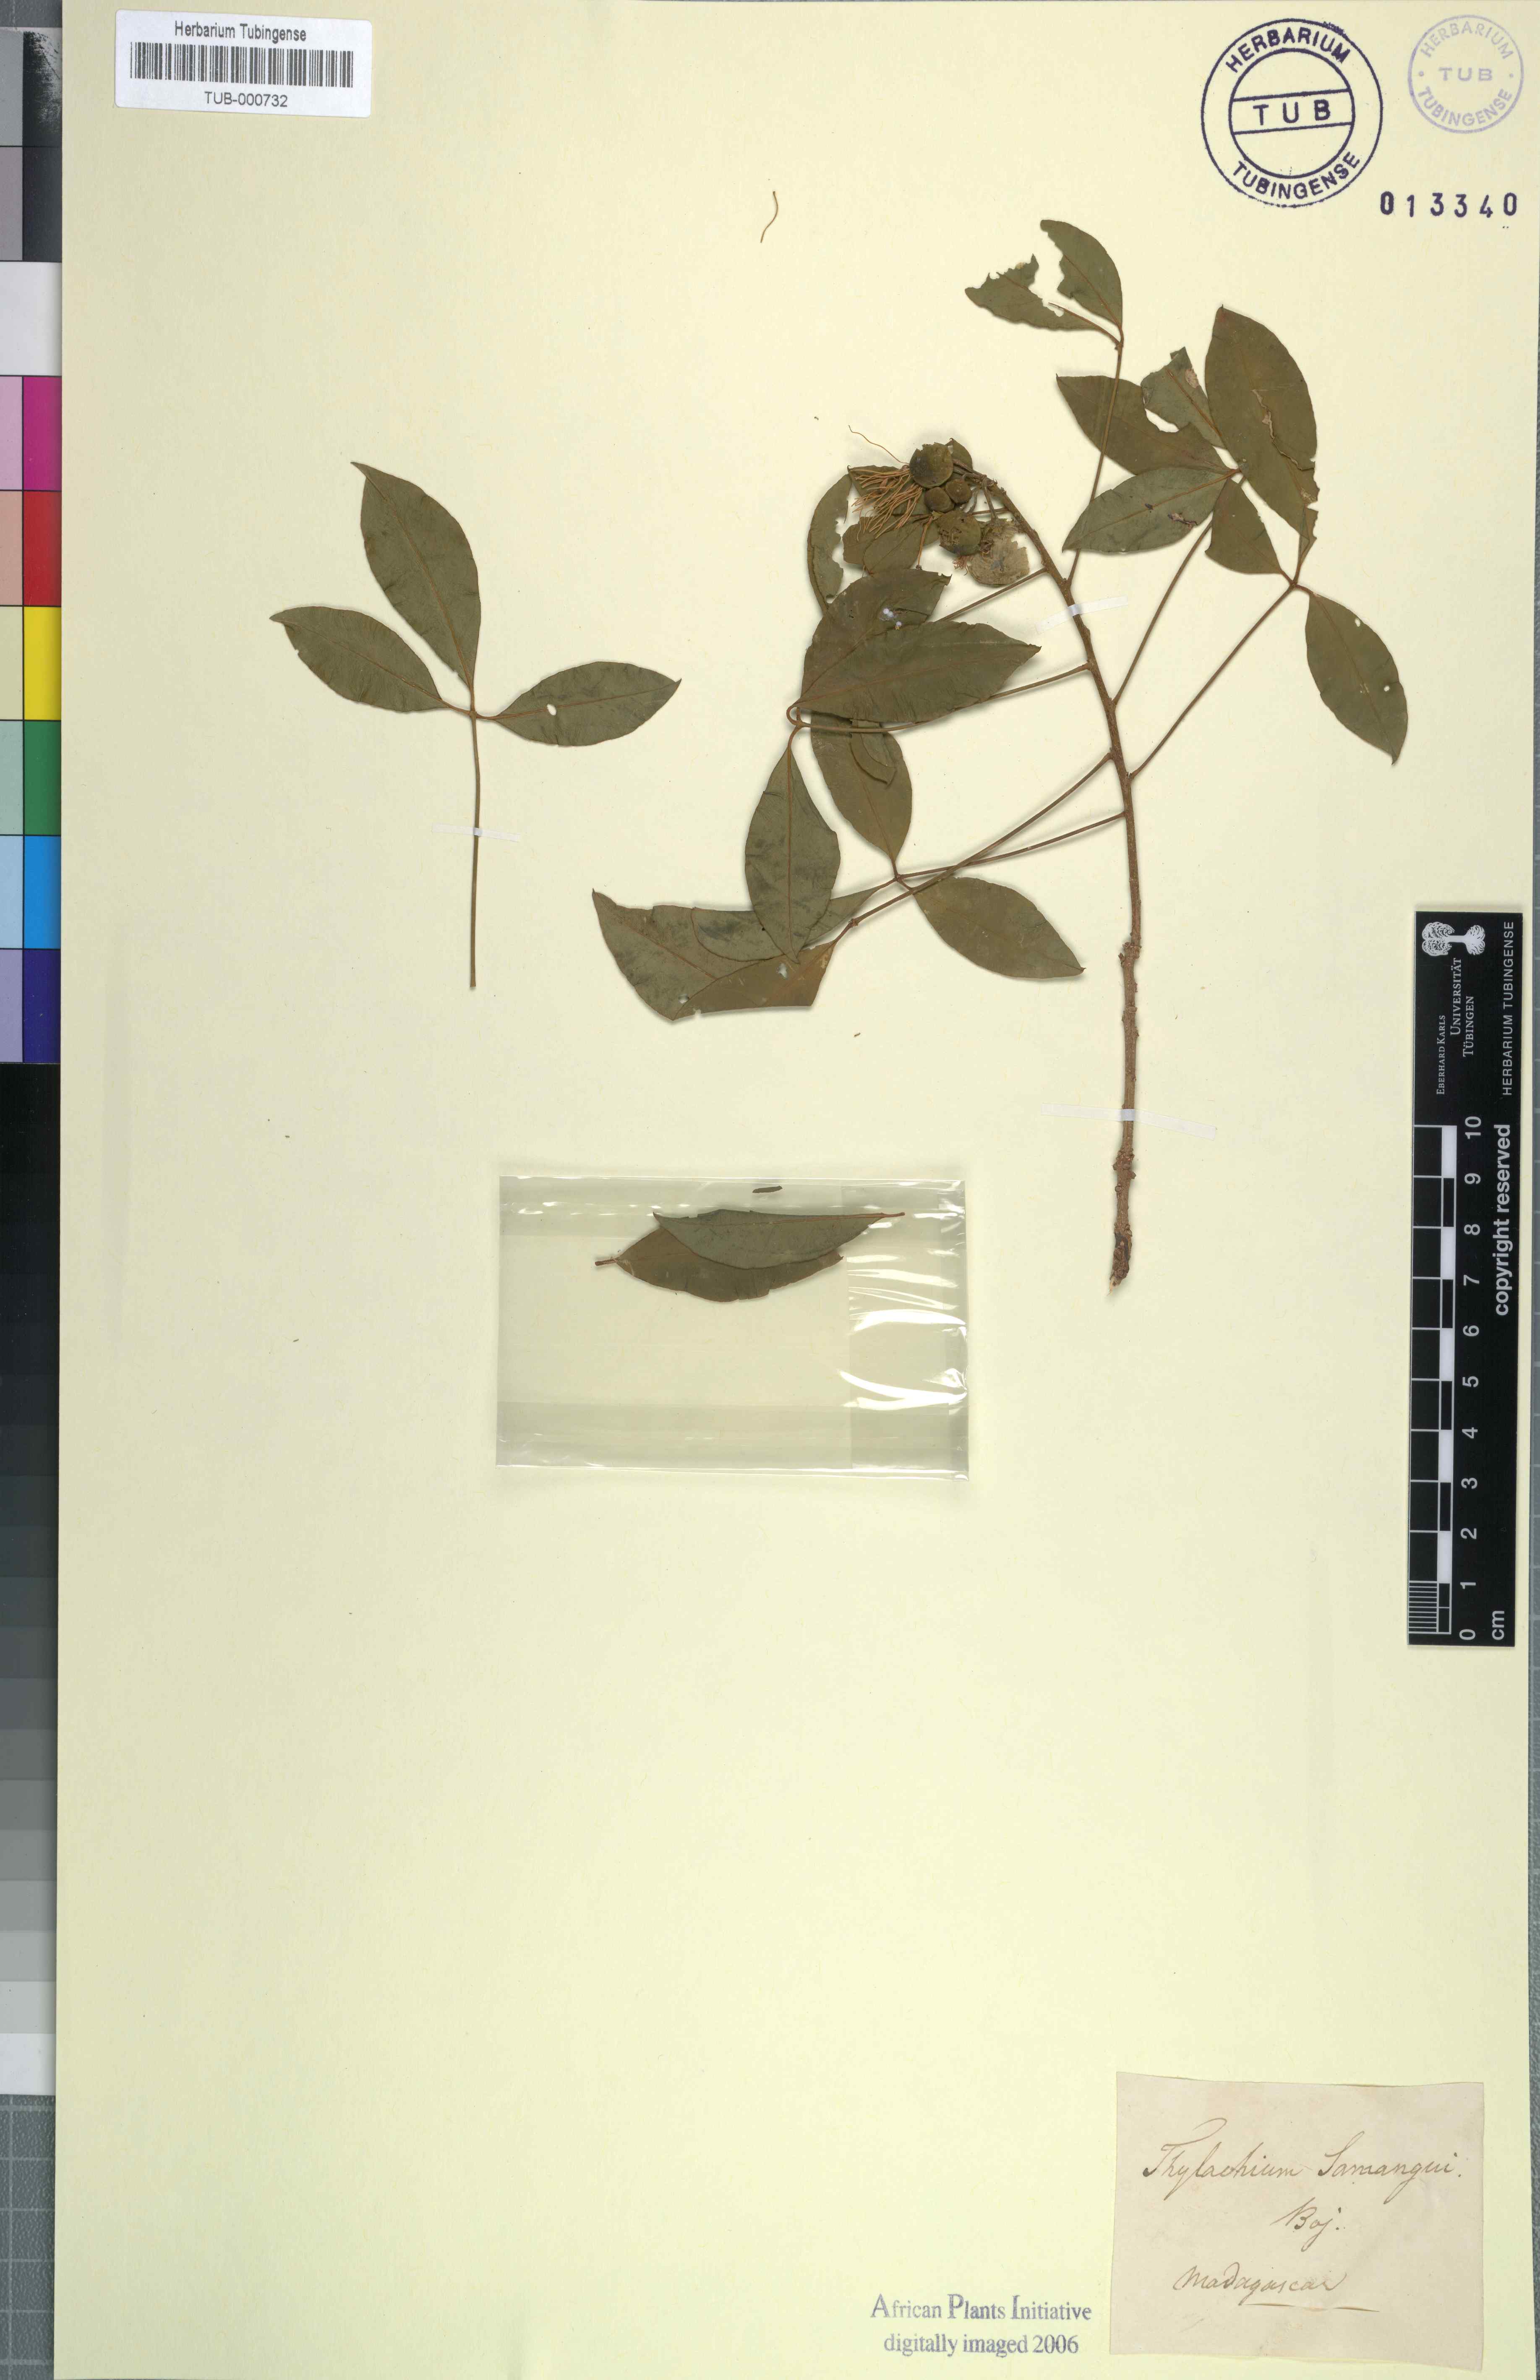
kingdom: Plantae
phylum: Tracheophyta
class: Magnoliopsida
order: Brassicales
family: Capparaceae
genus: Thilachium
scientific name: Thilachium sumangui
